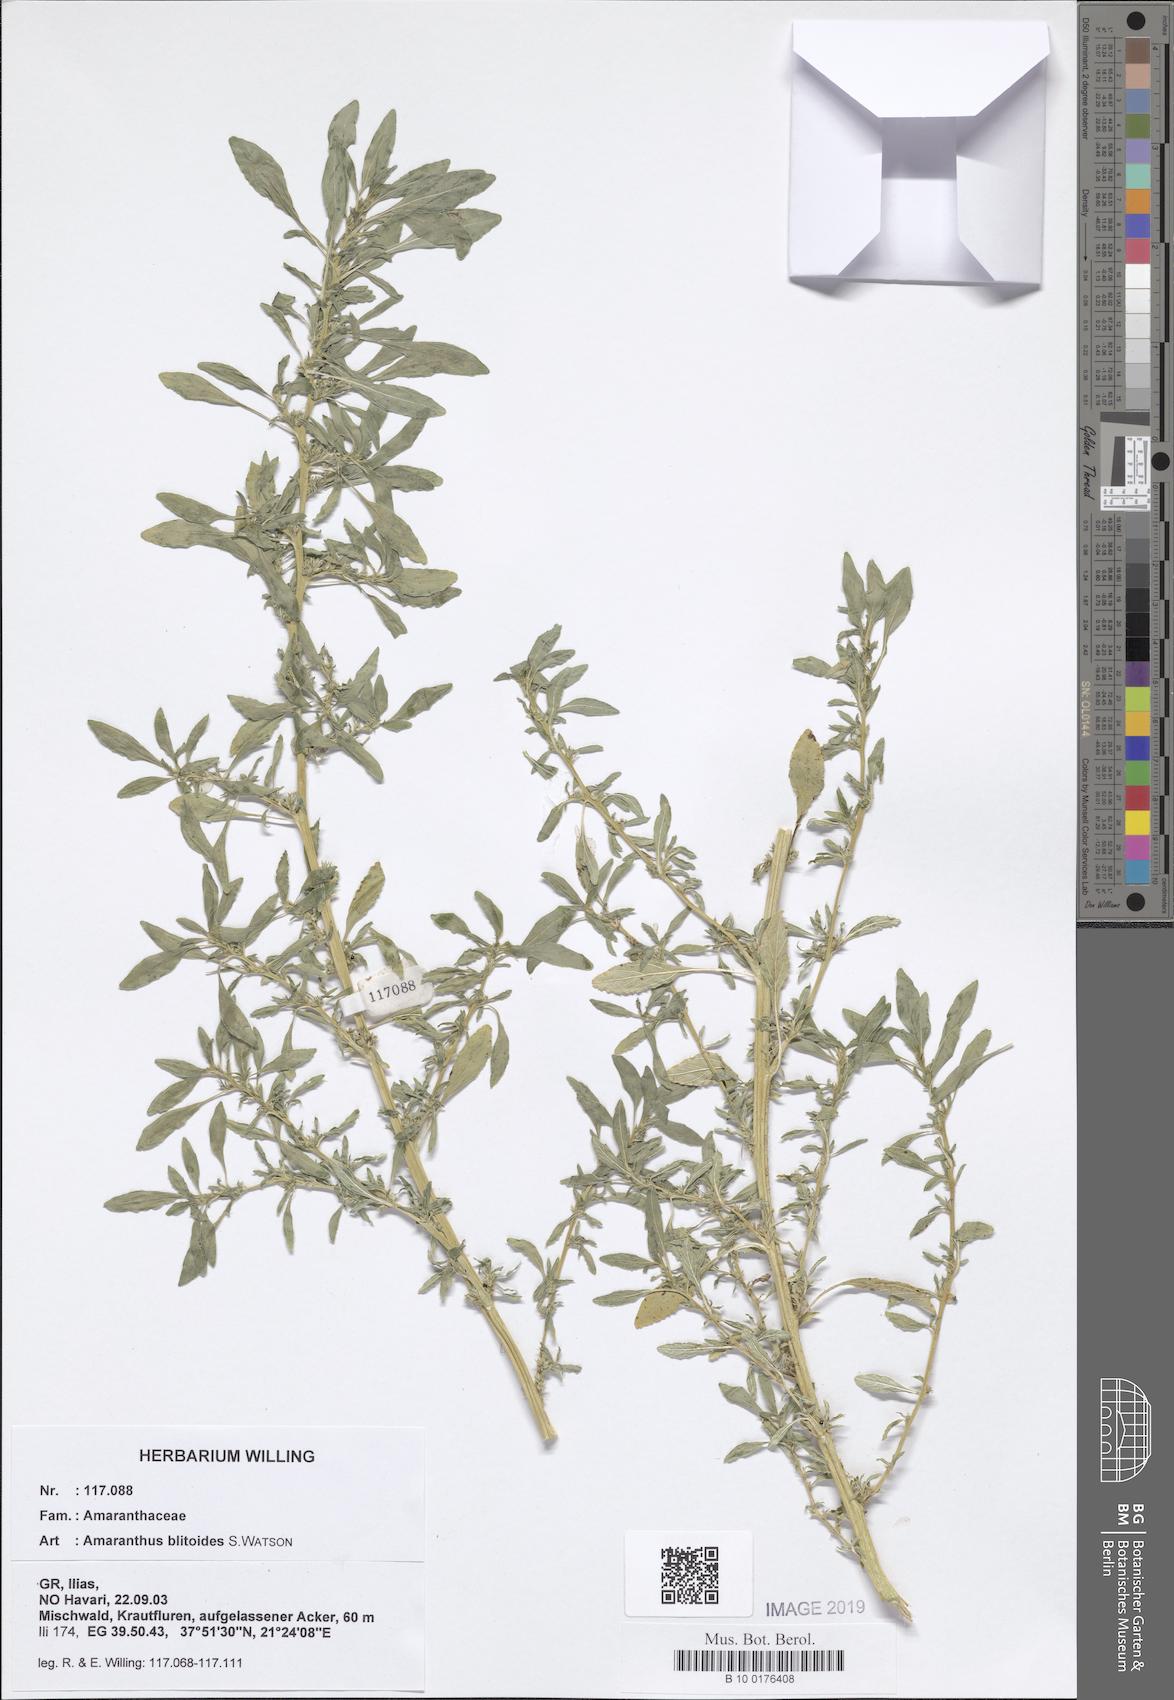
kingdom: Plantae
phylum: Tracheophyta
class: Magnoliopsida
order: Caryophyllales
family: Amaranthaceae
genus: Amaranthus
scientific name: Amaranthus blitoides
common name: Prostrate pigweed
